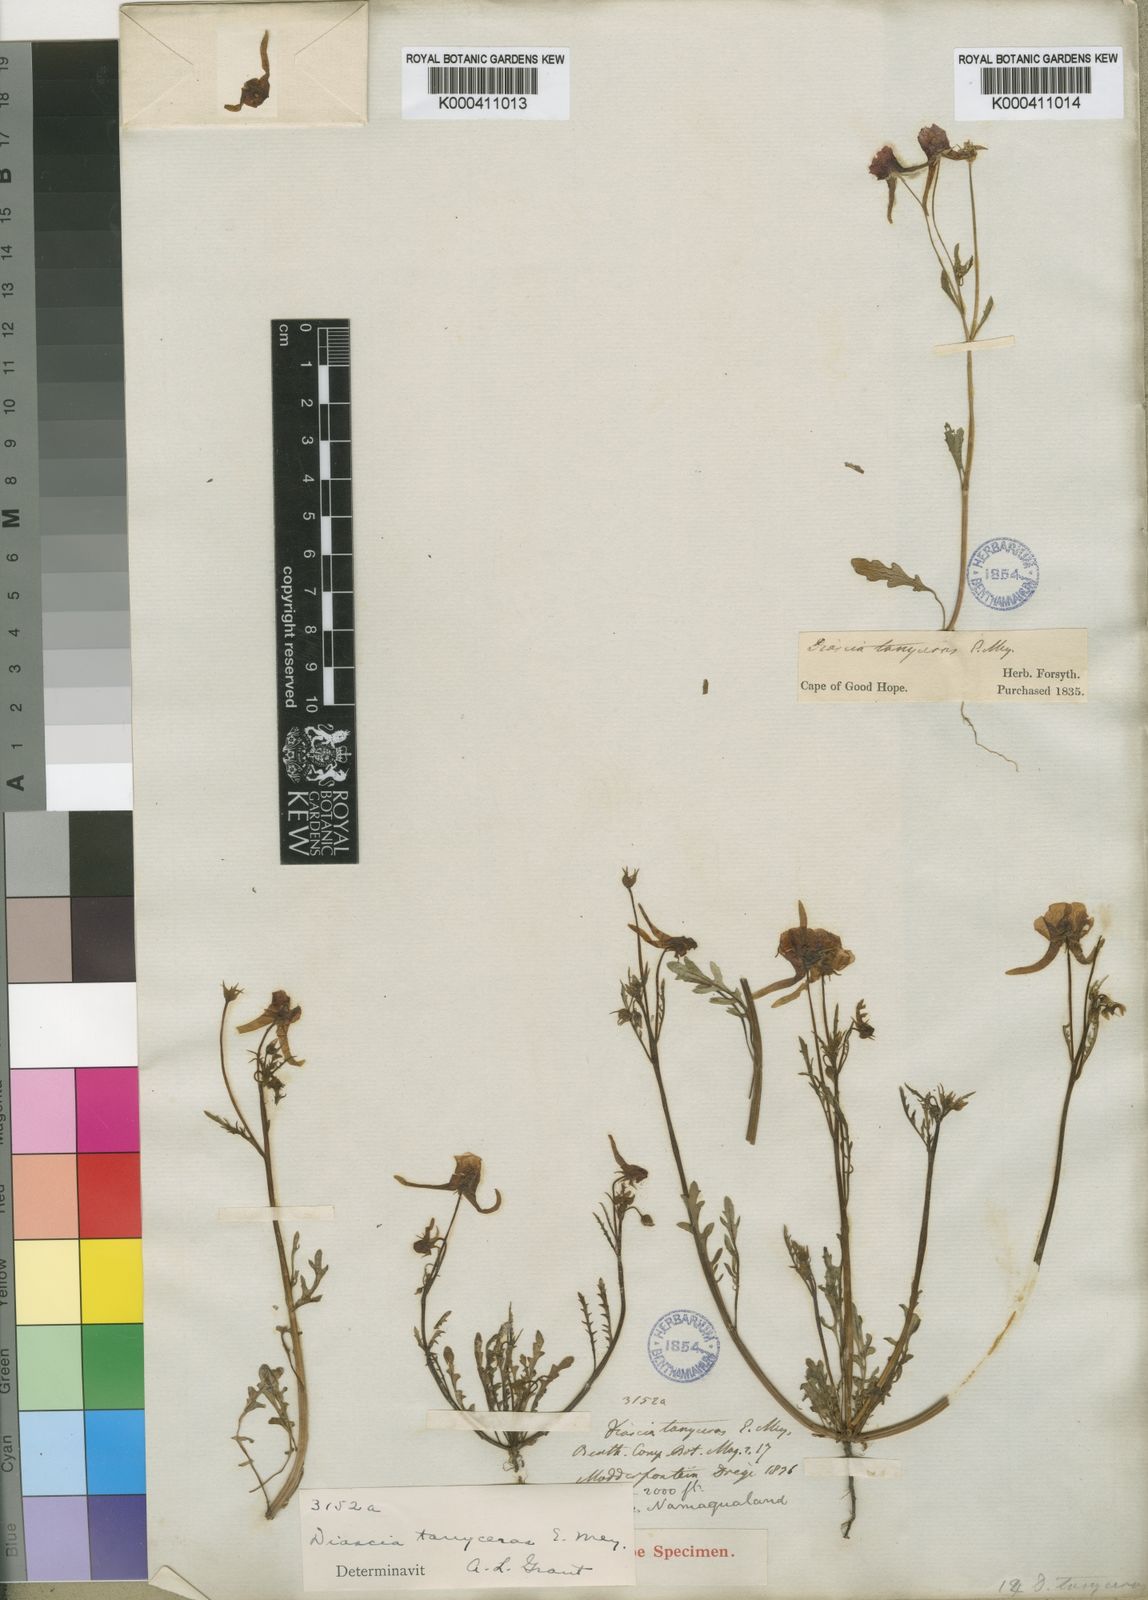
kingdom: Plantae
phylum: Tracheophyta
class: Magnoliopsida
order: Lamiales
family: Scrophulariaceae
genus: Diascia
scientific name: Diascia tanyceras
